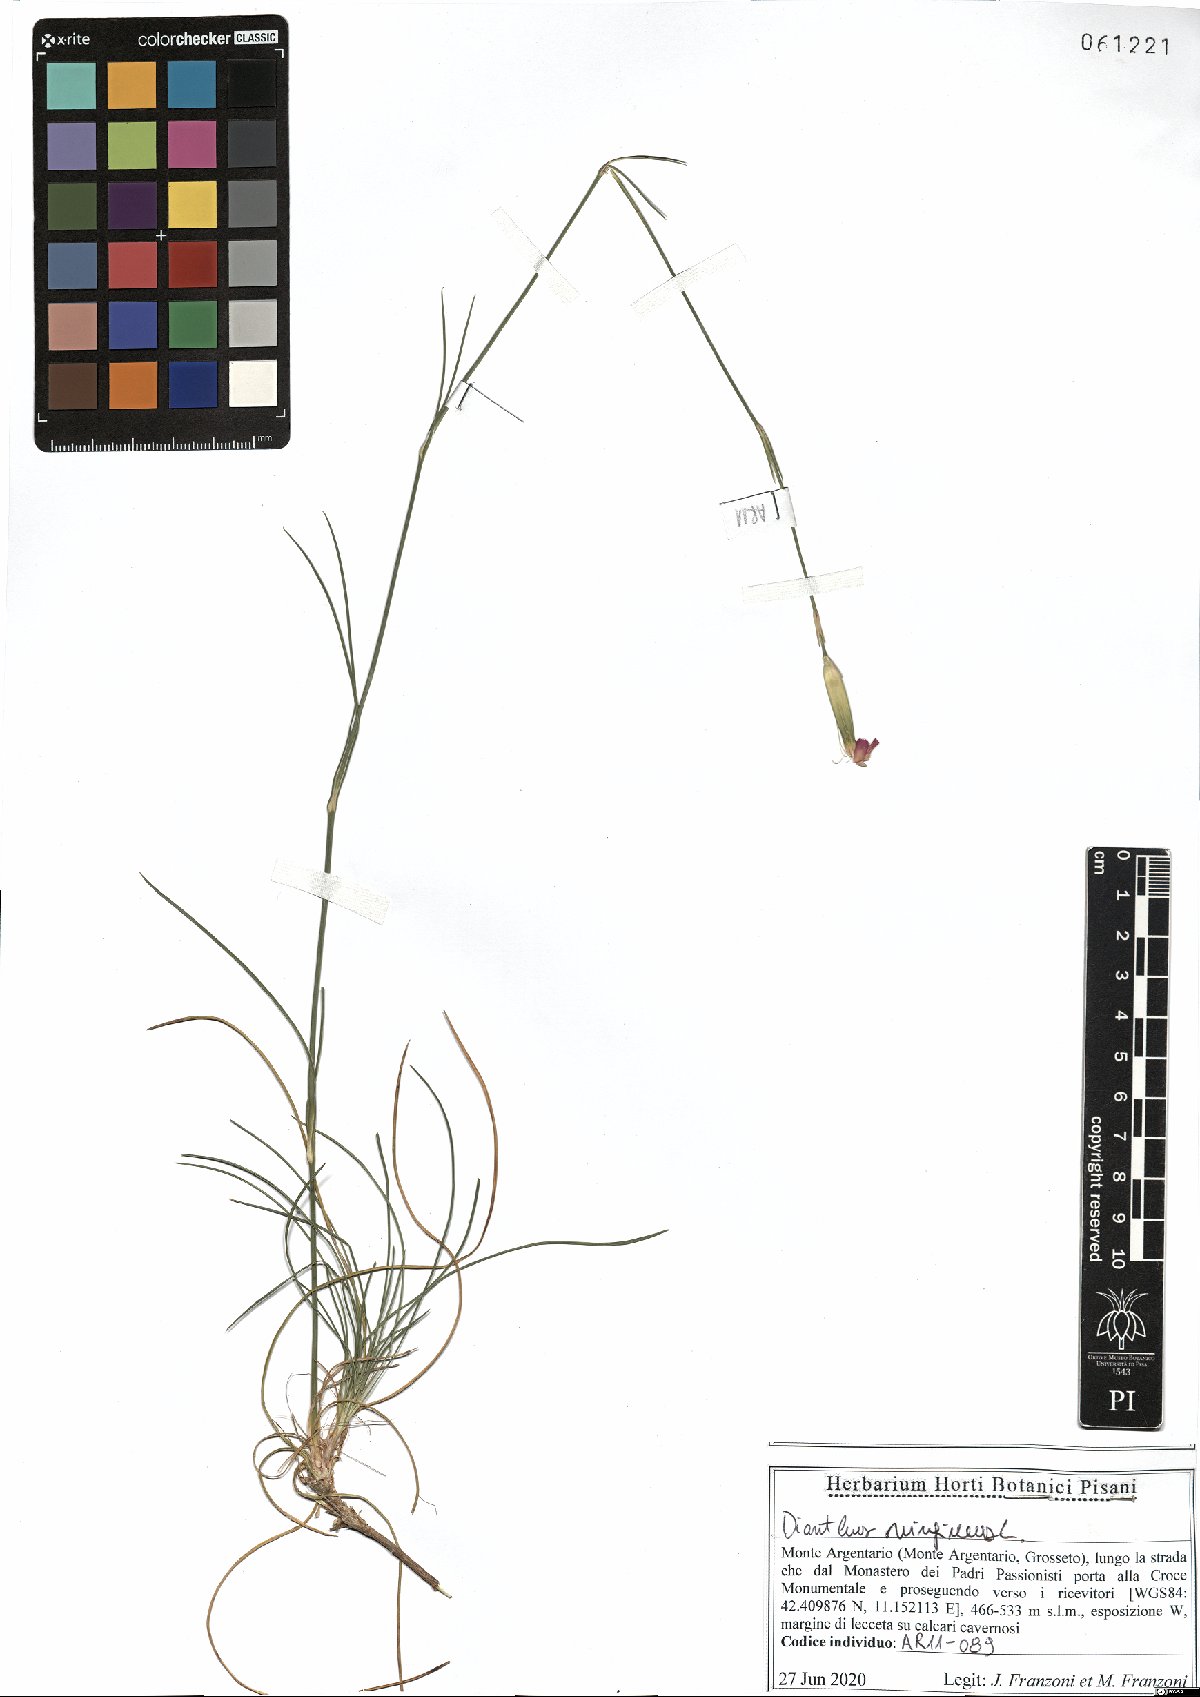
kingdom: Plantae
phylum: Tracheophyta
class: Magnoliopsida
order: Caryophyllales
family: Caryophyllaceae
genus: Dianthus
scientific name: Dianthus virgineus
